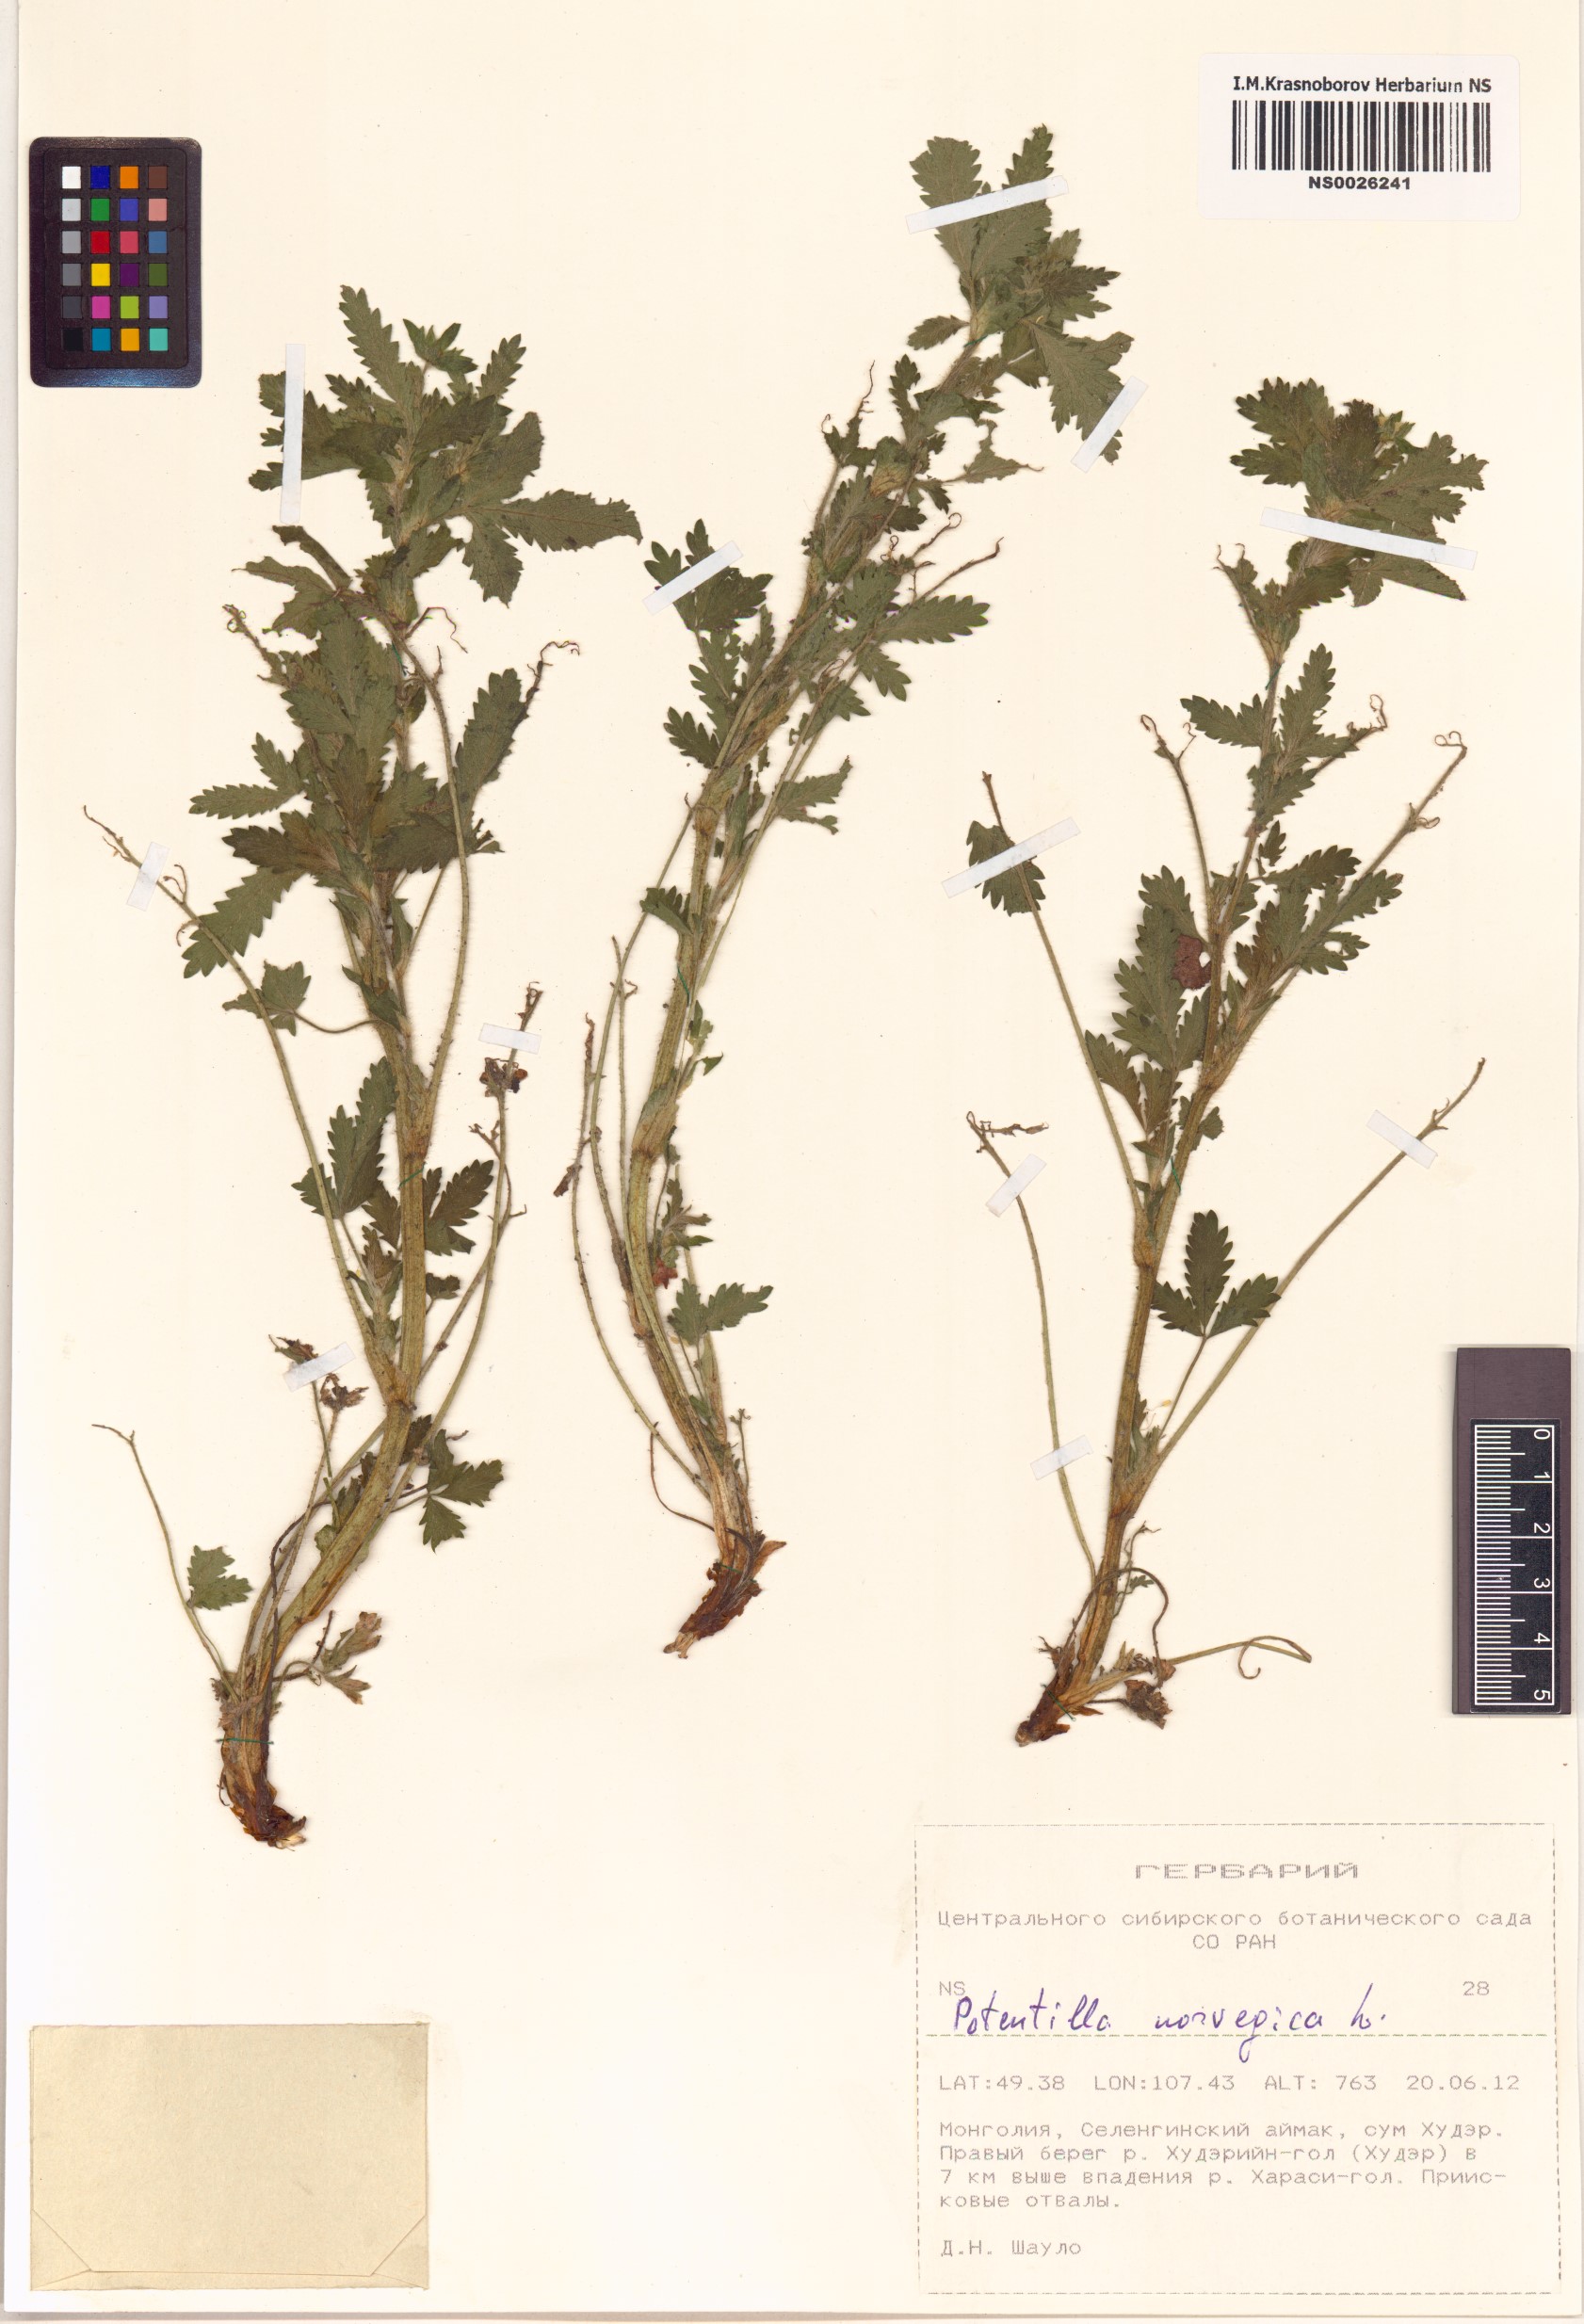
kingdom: Plantae
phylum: Tracheophyta
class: Magnoliopsida
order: Rosales
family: Rosaceae
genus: Potentilla
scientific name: Potentilla norvegica
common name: Ternate-leaved cinquefoil
